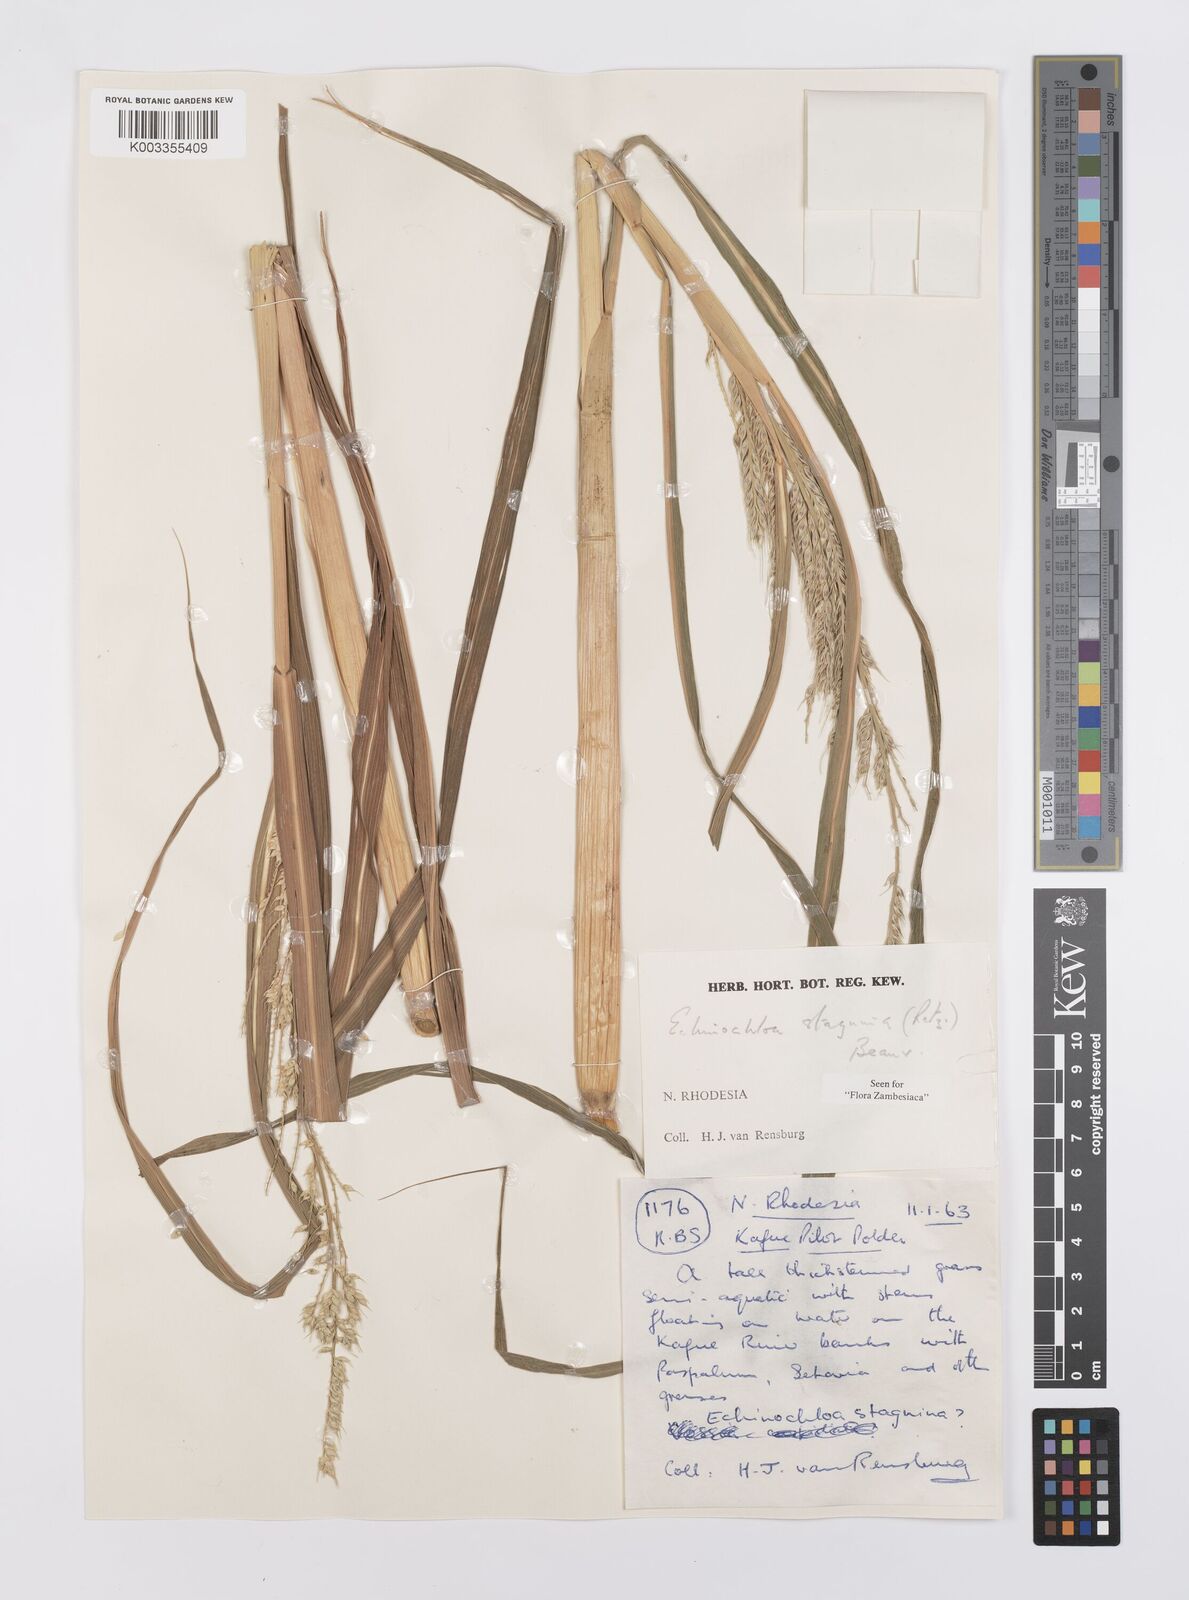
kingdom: Plantae
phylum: Tracheophyta
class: Liliopsida
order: Poales
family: Poaceae
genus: Echinochloa
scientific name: Echinochloa stagnina
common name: Burgu grass
